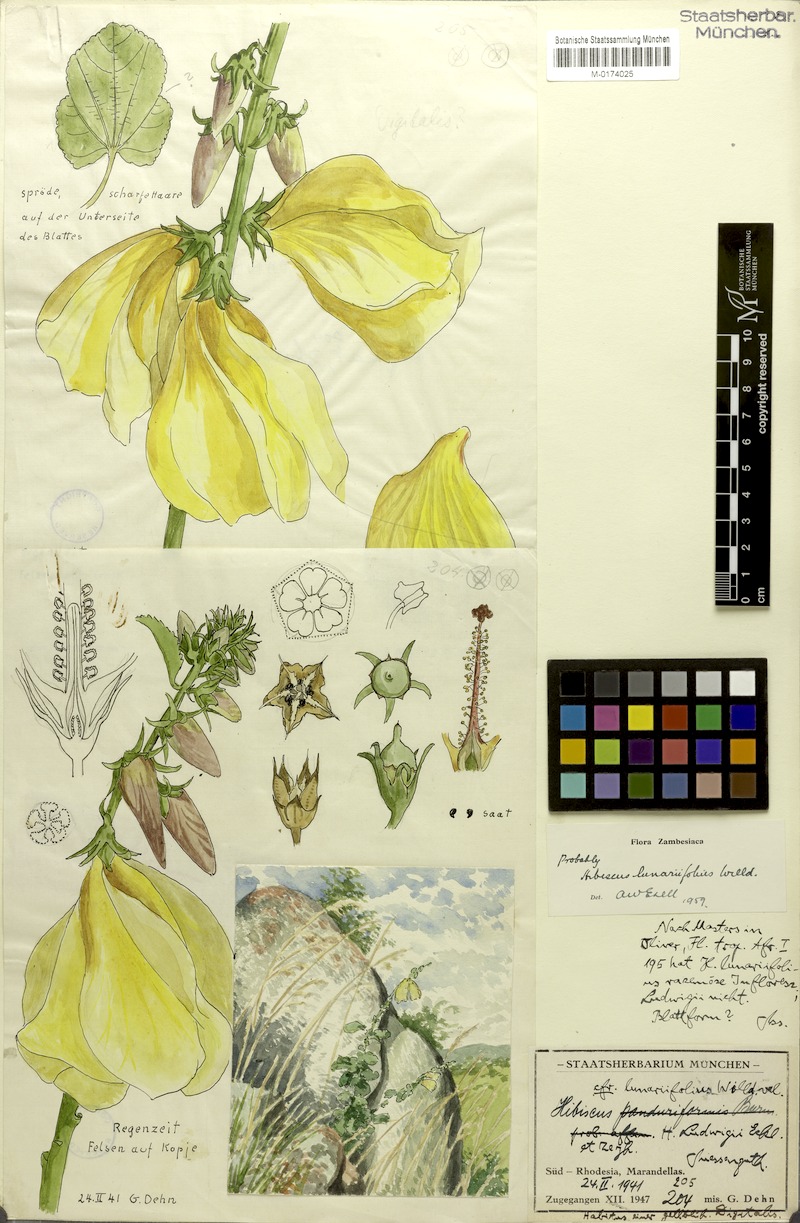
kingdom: Plantae
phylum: Tracheophyta
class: Magnoliopsida
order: Malvales
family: Malvaceae
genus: Hibiscus
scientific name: Hibiscus lunariifolius
